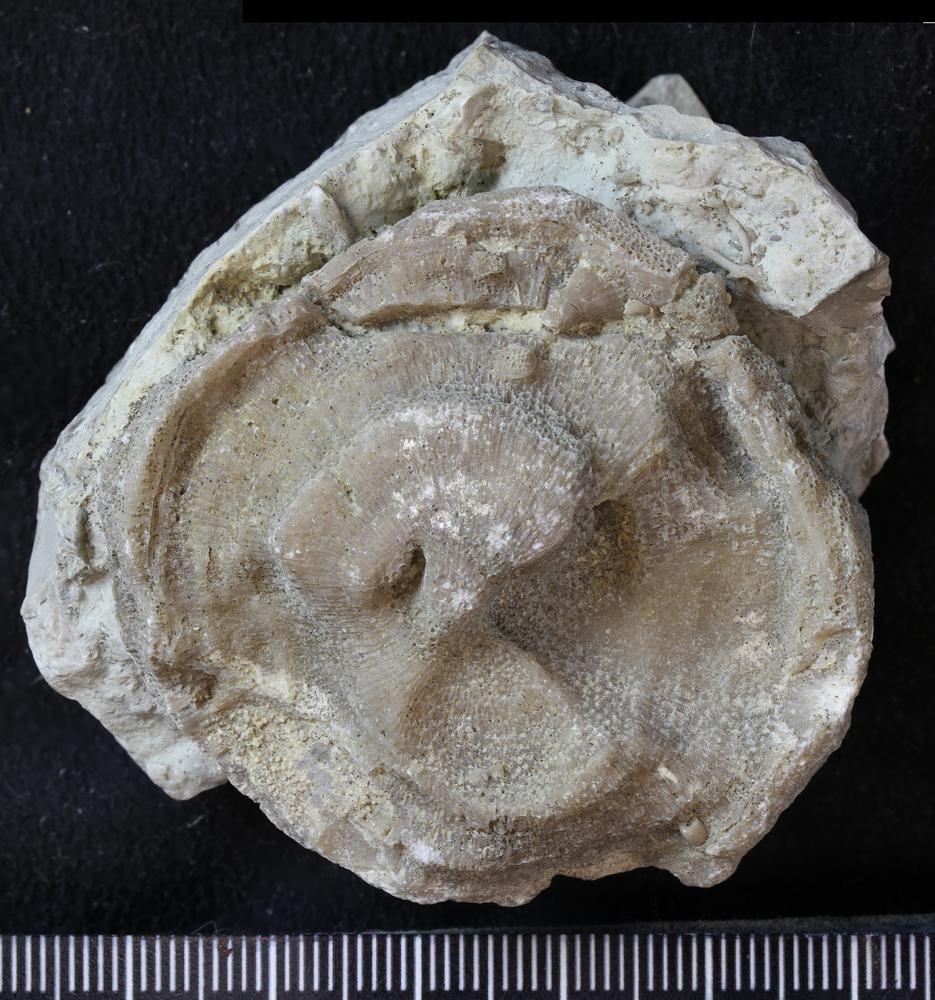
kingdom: Animalia
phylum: Bryozoa
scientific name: Bryozoa
